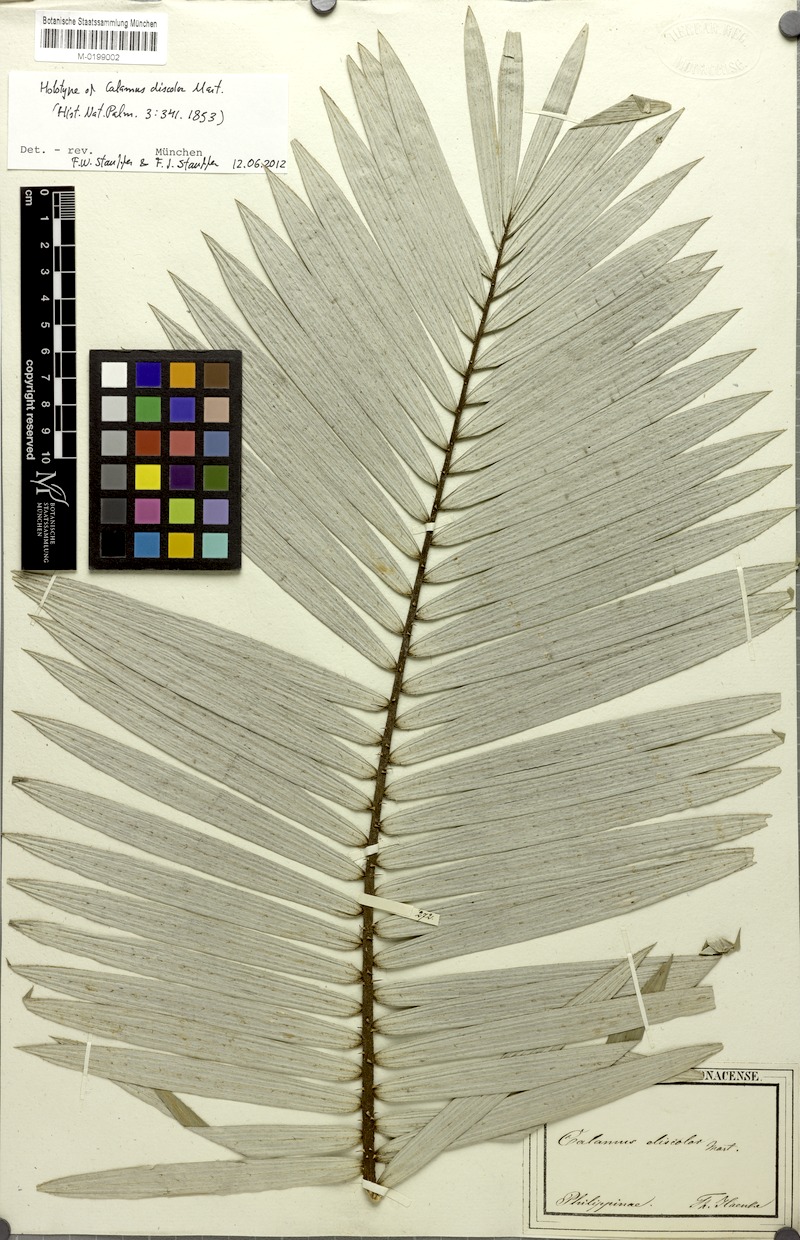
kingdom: Plantae
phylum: Tracheophyta
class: Liliopsida
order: Arecales
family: Arecaceae
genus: Calamus
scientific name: Calamus discolor
